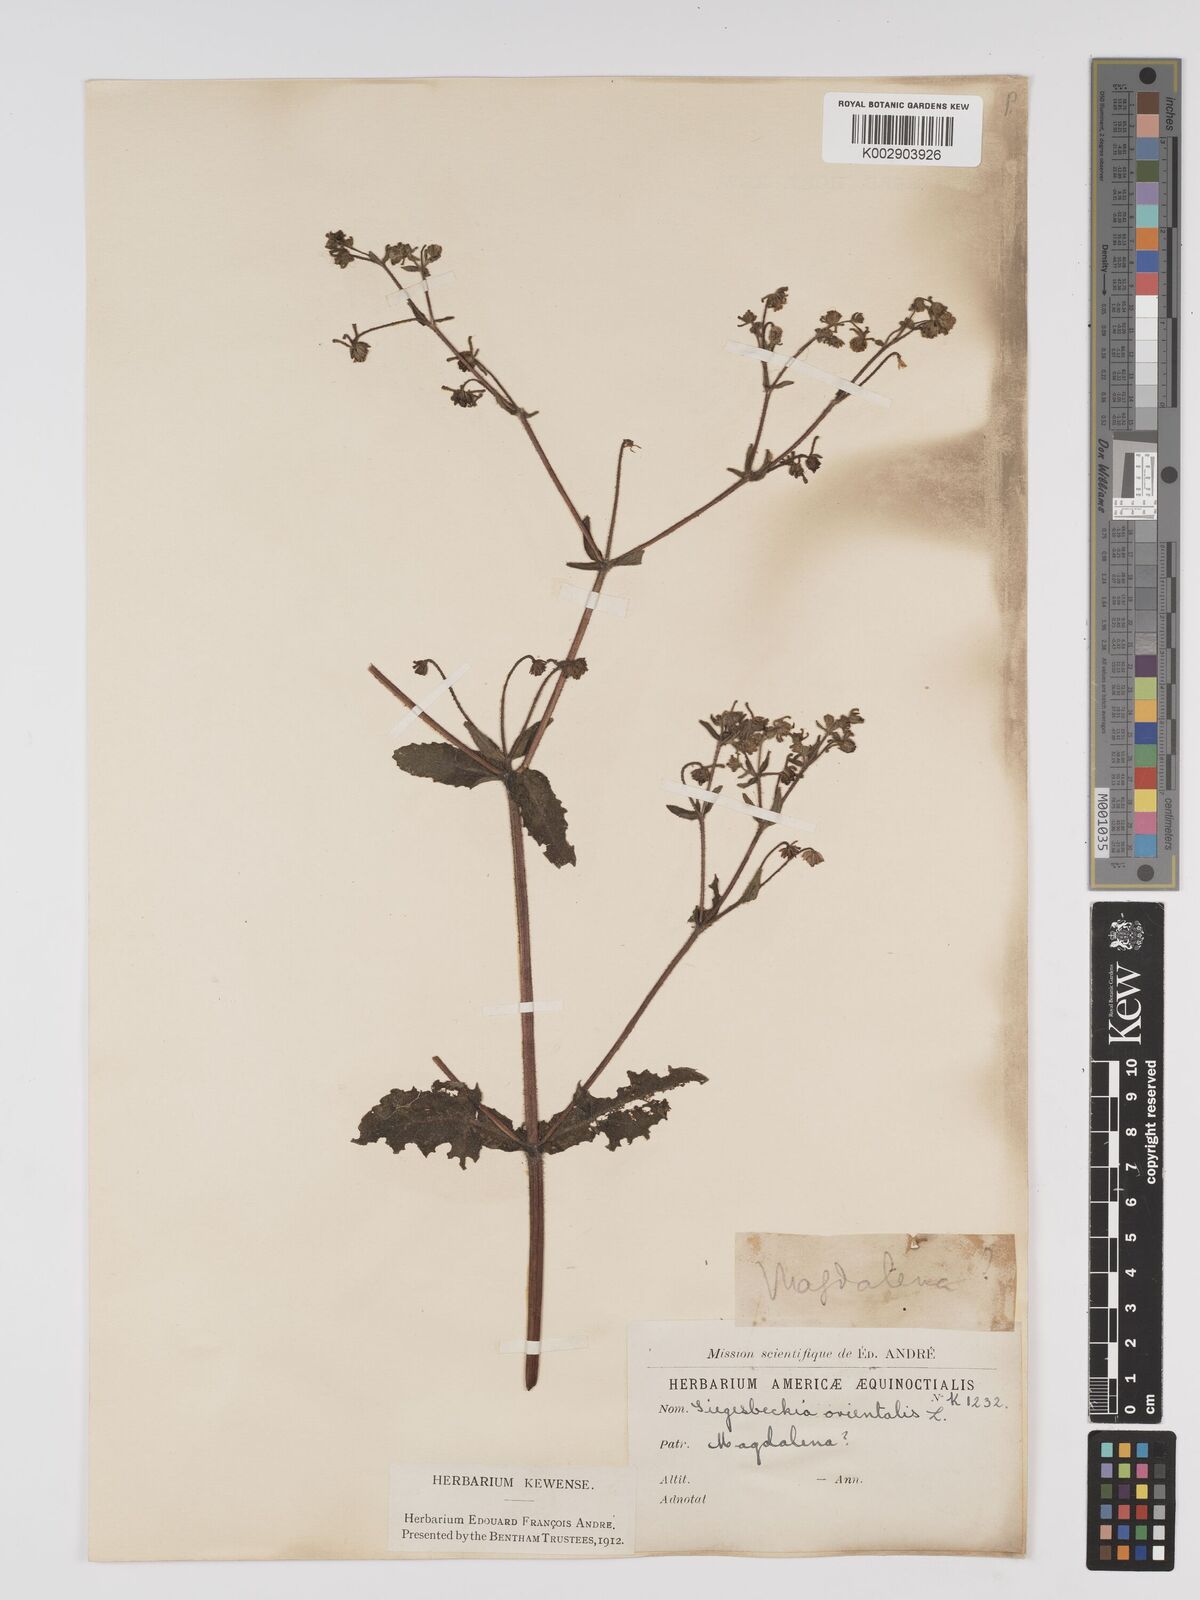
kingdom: Plantae
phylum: Tracheophyta
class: Magnoliopsida
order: Asterales
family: Asteraceae
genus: Sigesbeckia
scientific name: Sigesbeckia jorullensis
